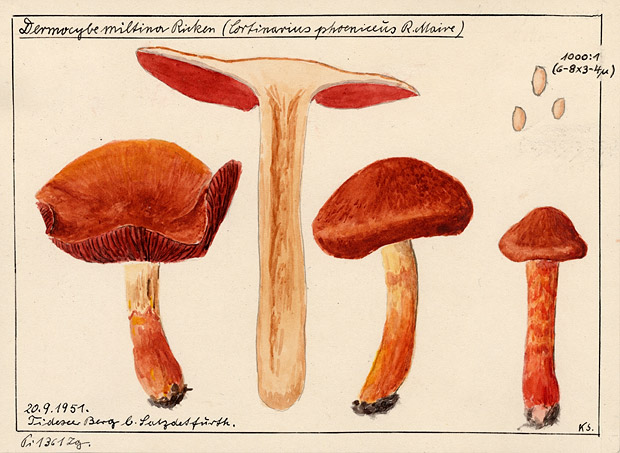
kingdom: Fungi
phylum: Basidiomycota
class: Agaricomycetes
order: Agaricales
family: Cortinariaceae
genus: Cortinarius
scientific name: Cortinarius miltinus
